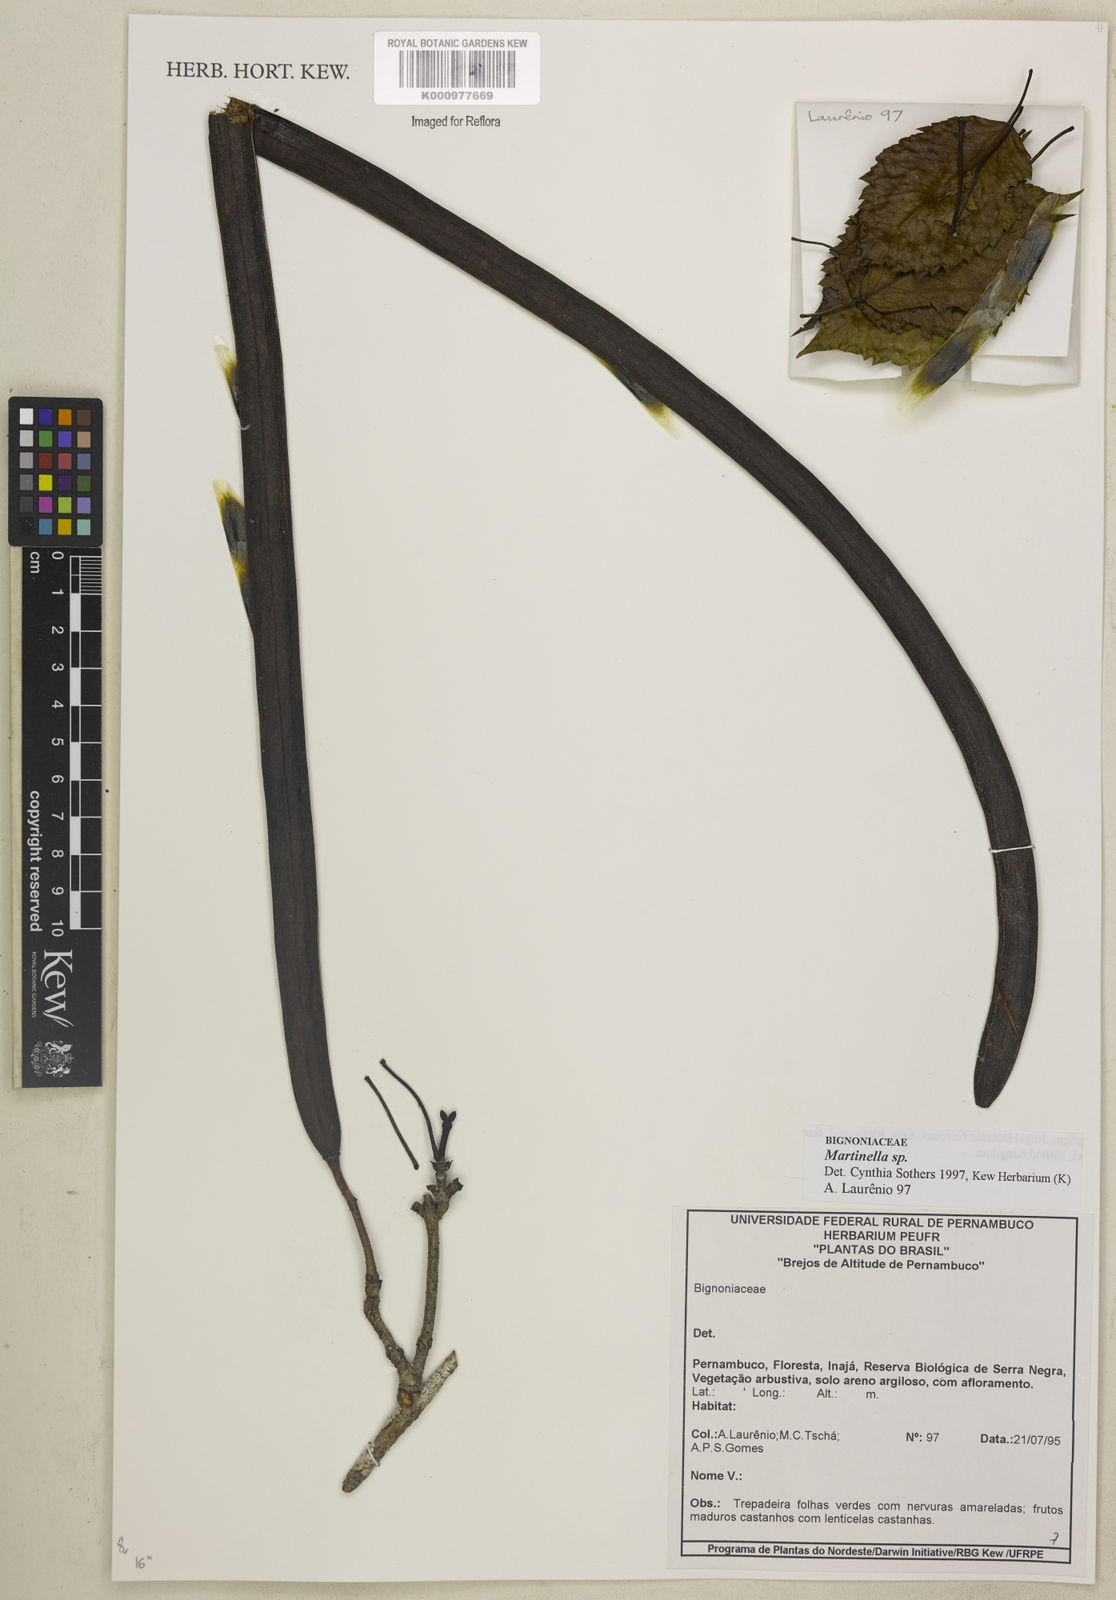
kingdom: Plantae
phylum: Tracheophyta
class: Magnoliopsida
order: Lamiales
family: Bignoniaceae
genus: Martinella
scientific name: Martinella
